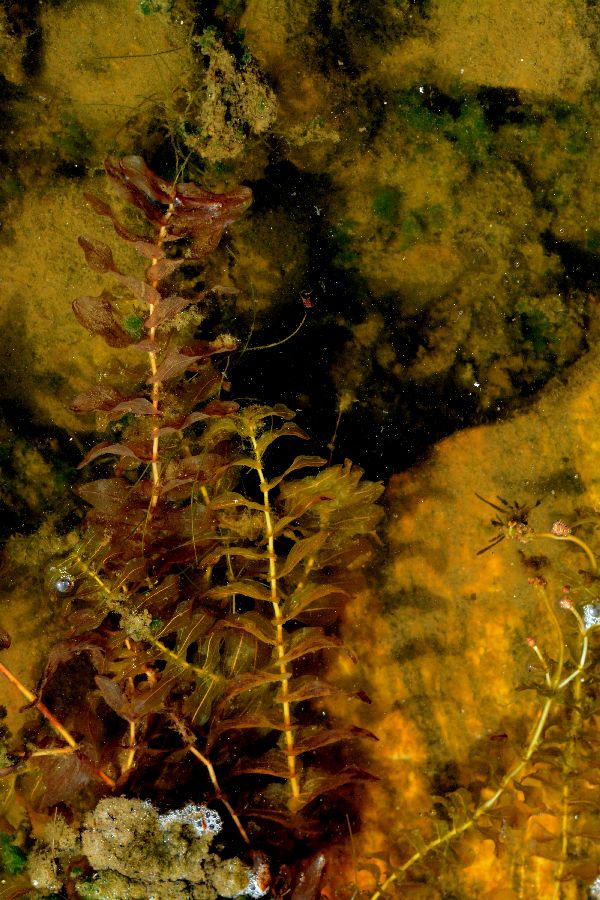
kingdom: Plantae
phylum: Tracheophyta
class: Liliopsida
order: Alismatales
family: Potamogetonaceae
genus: Potamogeton
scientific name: Potamogeton perfoliatus
